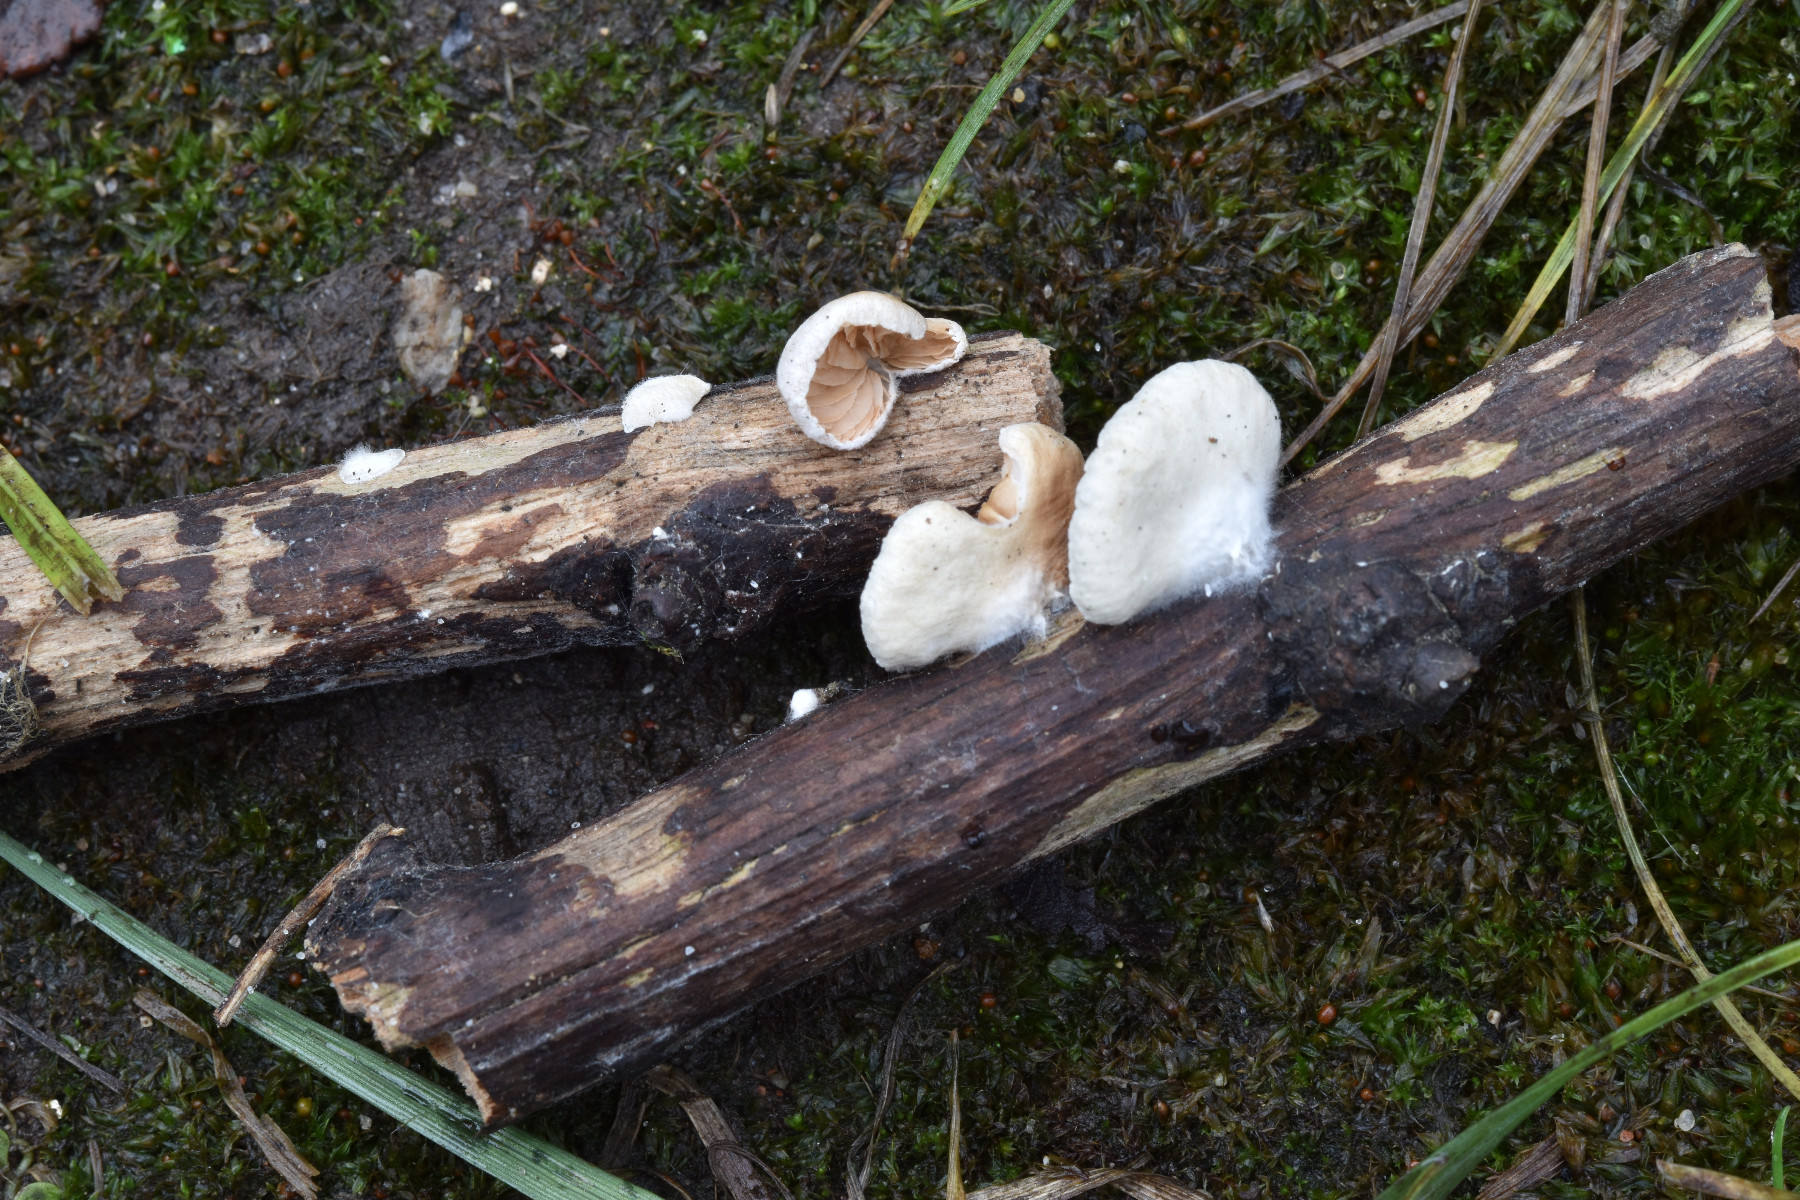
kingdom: Fungi
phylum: Basidiomycota
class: Agaricomycetes
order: Agaricales
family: Crepidotaceae
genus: Crepidotus
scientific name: Crepidotus cesatii
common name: almindelig muslingesvamp
